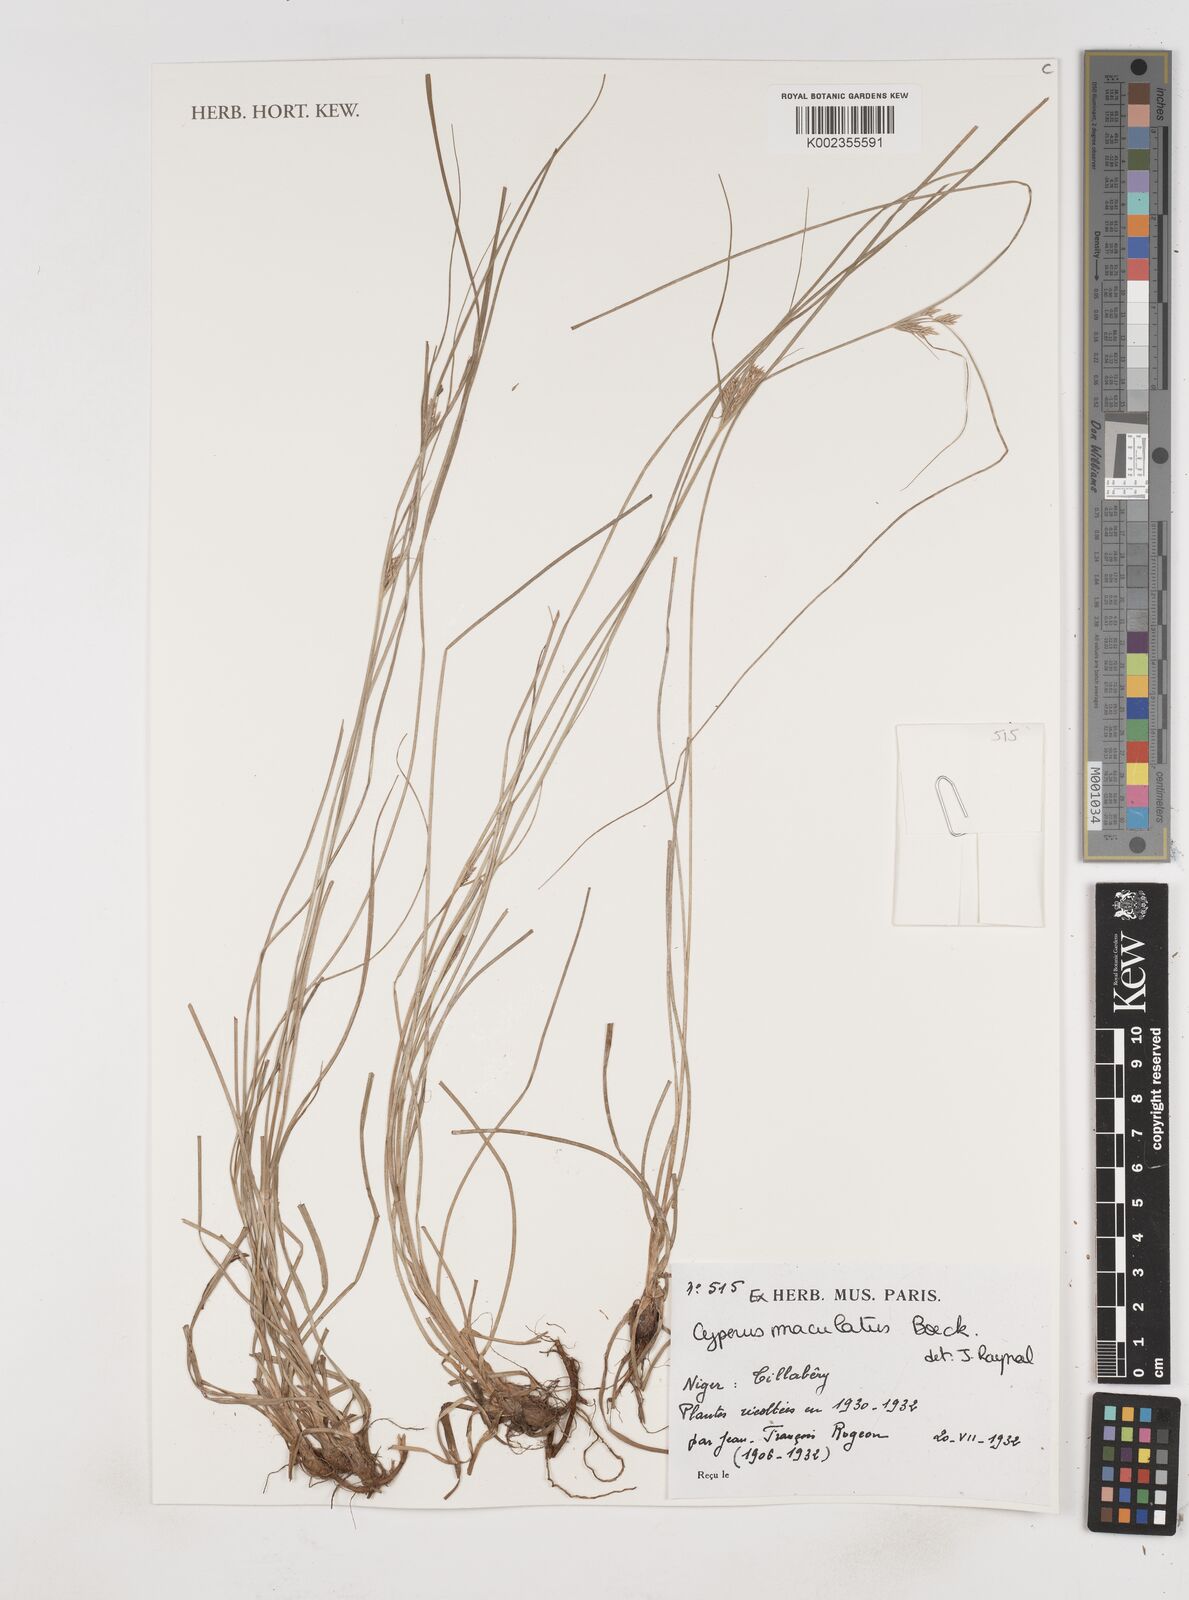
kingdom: Plantae
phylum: Tracheophyta
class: Liliopsida
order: Poales
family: Cyperaceae
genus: Cyperus
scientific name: Cyperus maculatus
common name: Maculated sedge
